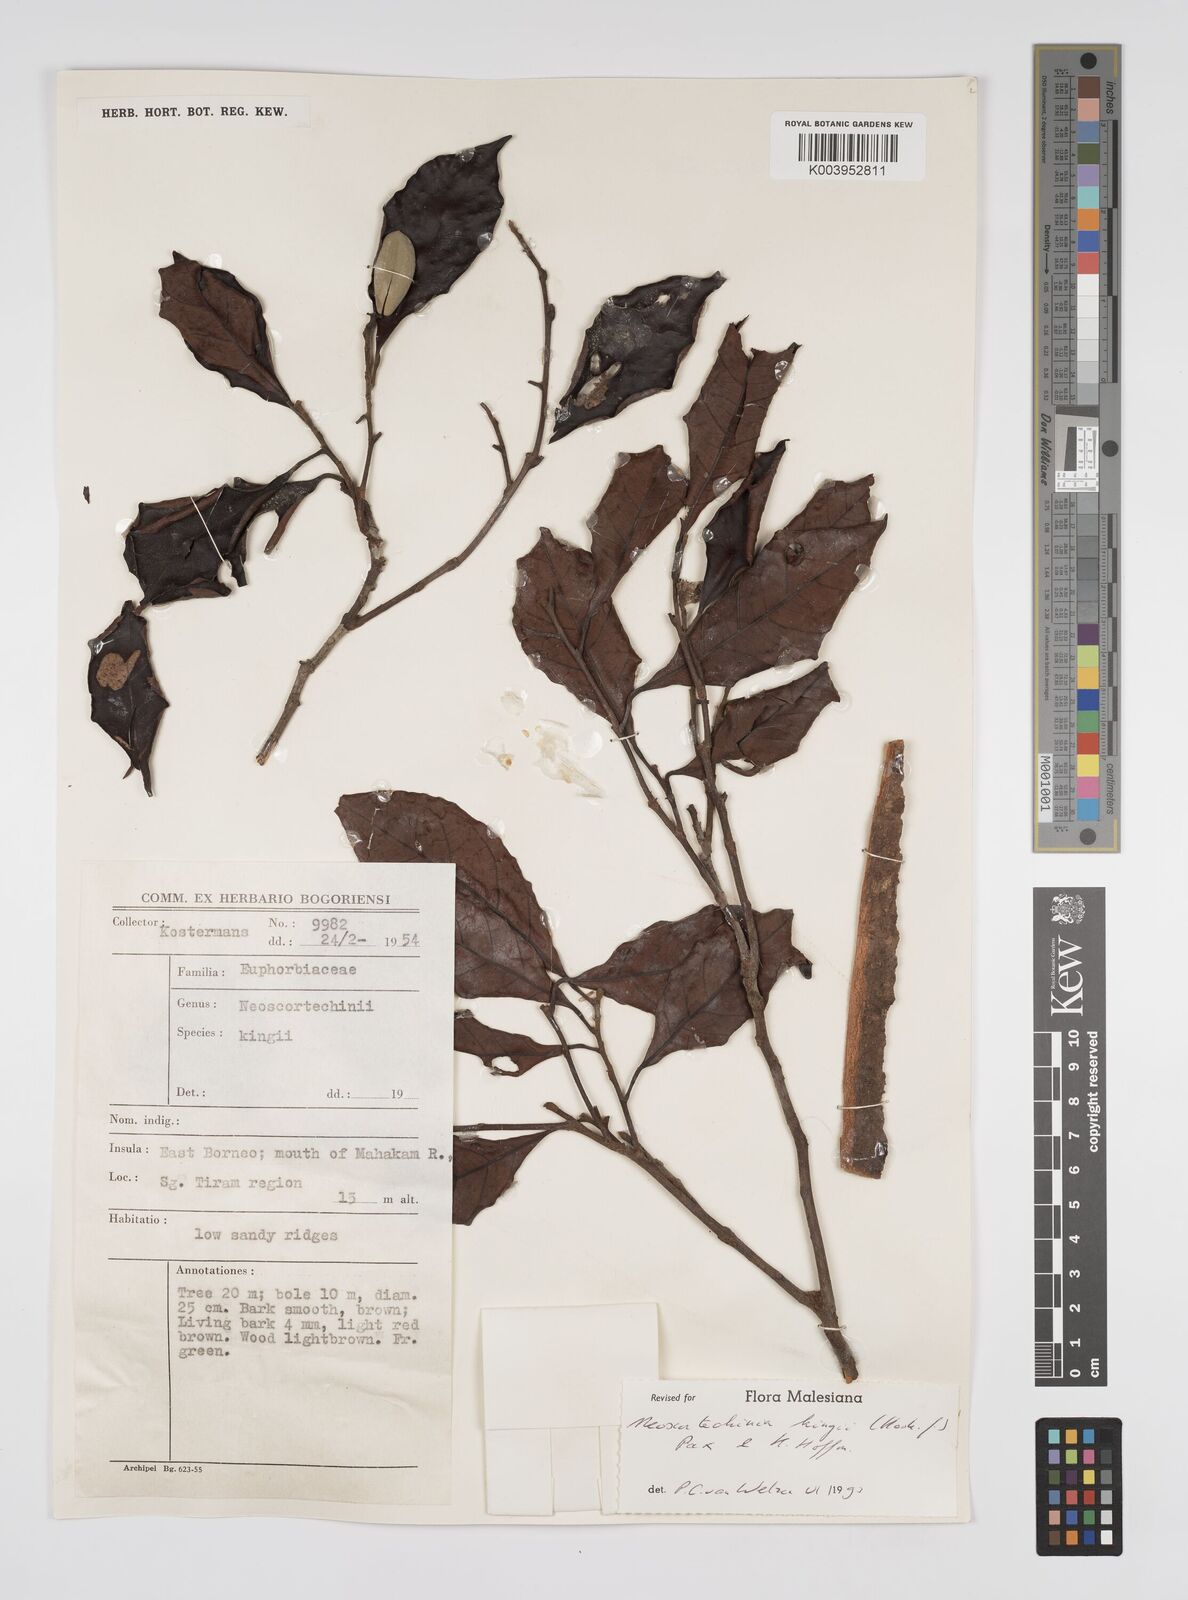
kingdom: Plantae
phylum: Tracheophyta
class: Magnoliopsida
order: Malpighiales
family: Euphorbiaceae
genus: Neoscortechinia
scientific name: Neoscortechinia kingii
